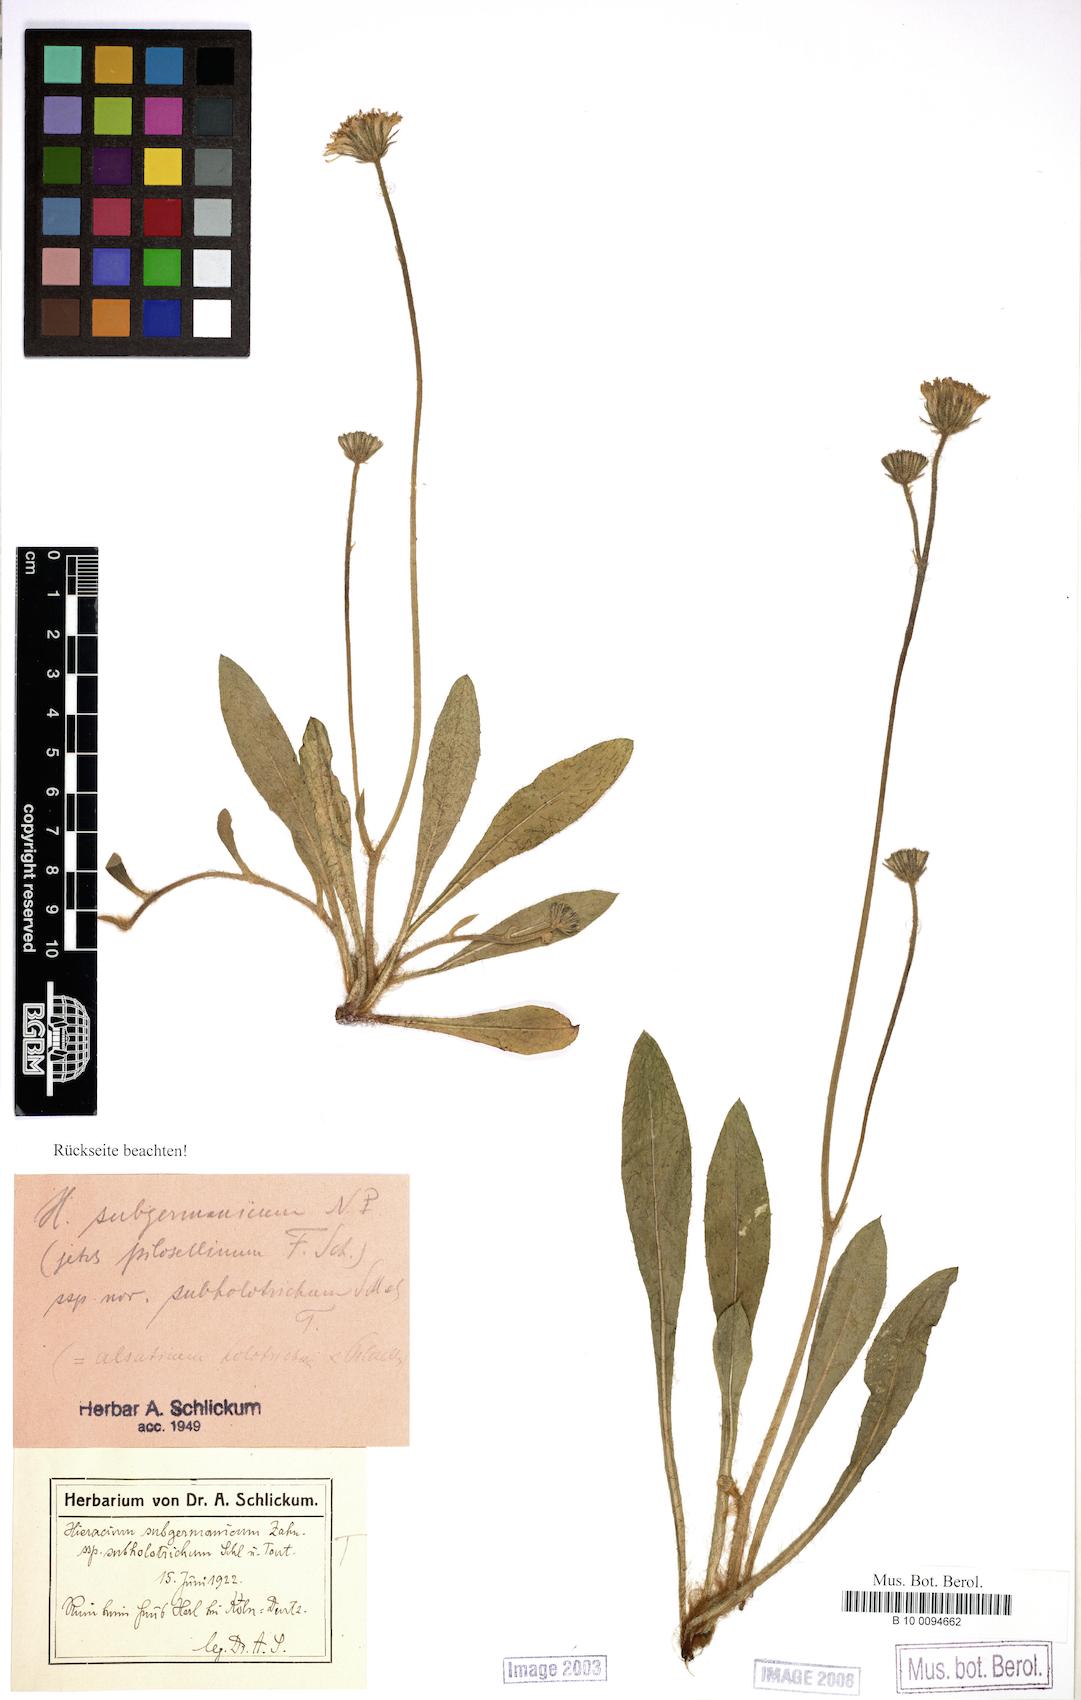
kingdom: Plantae
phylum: Tracheophyta
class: Magnoliopsida
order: Asterales
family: Asteraceae
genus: Pilosella
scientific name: Pilosella pilosellina
